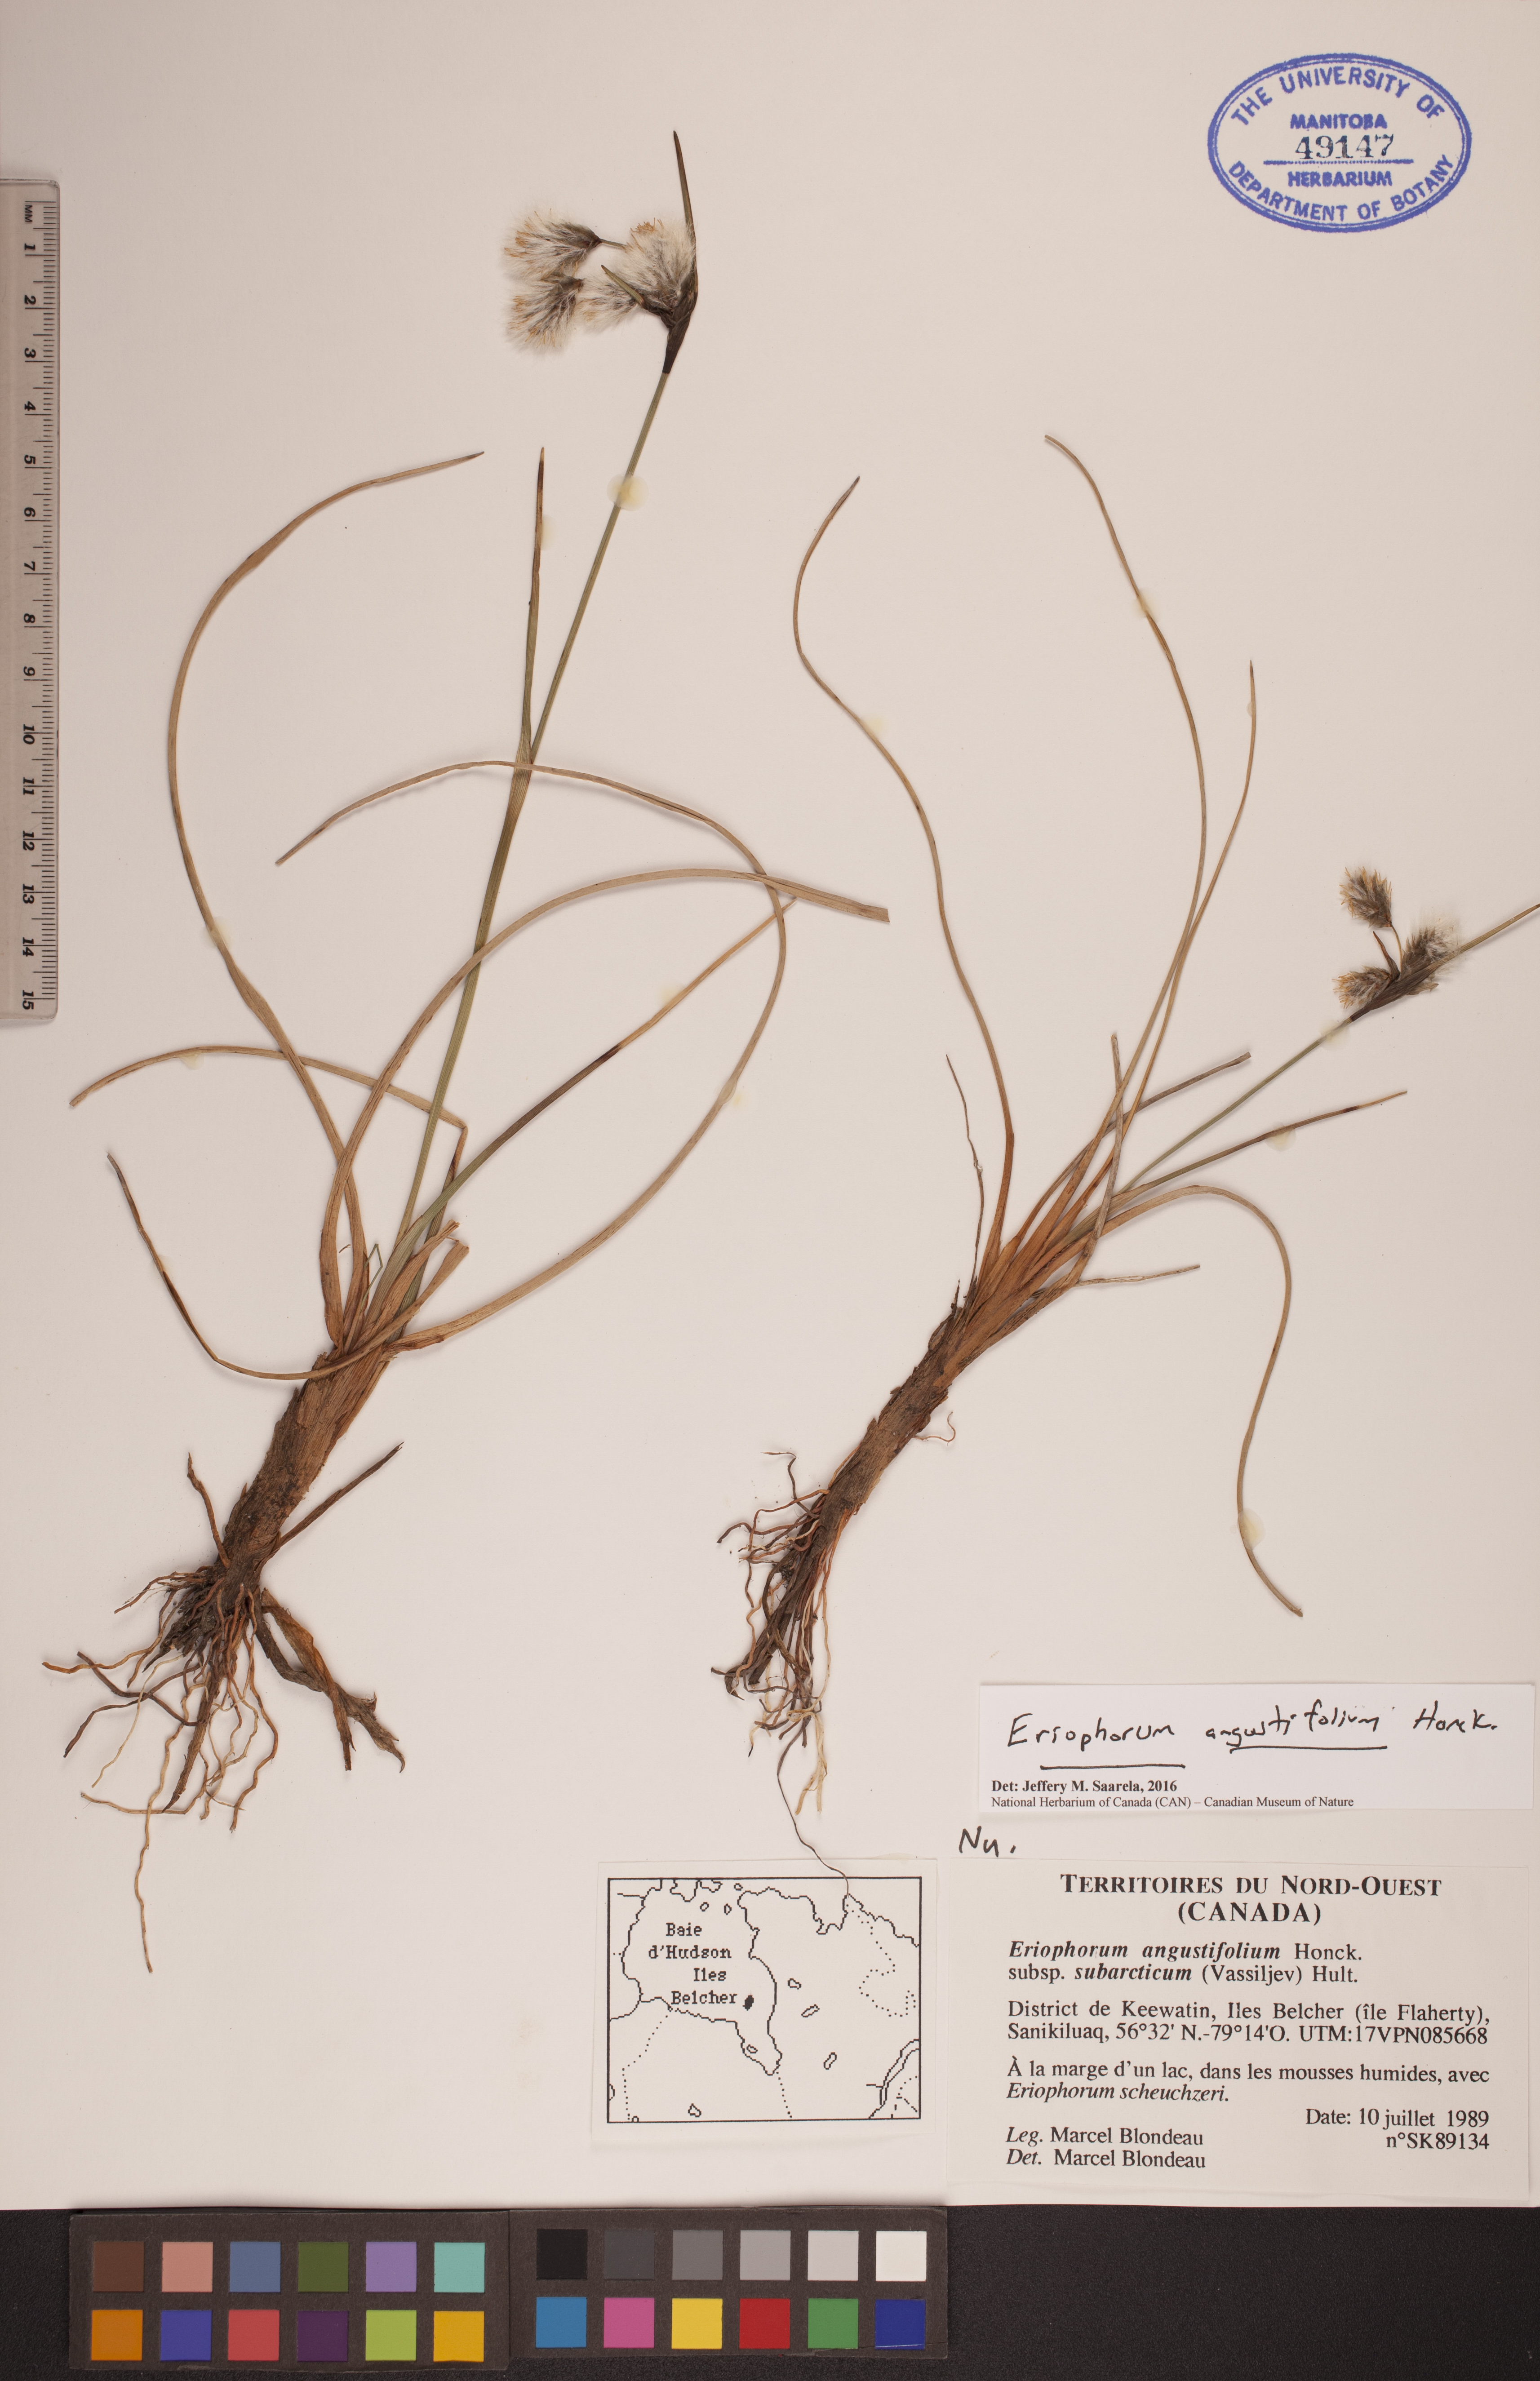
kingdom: Plantae
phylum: Tracheophyta
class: Liliopsida
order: Poales
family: Cyperaceae
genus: Eriophorum
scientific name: Eriophorum angustifolium
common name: Common cottongrass
